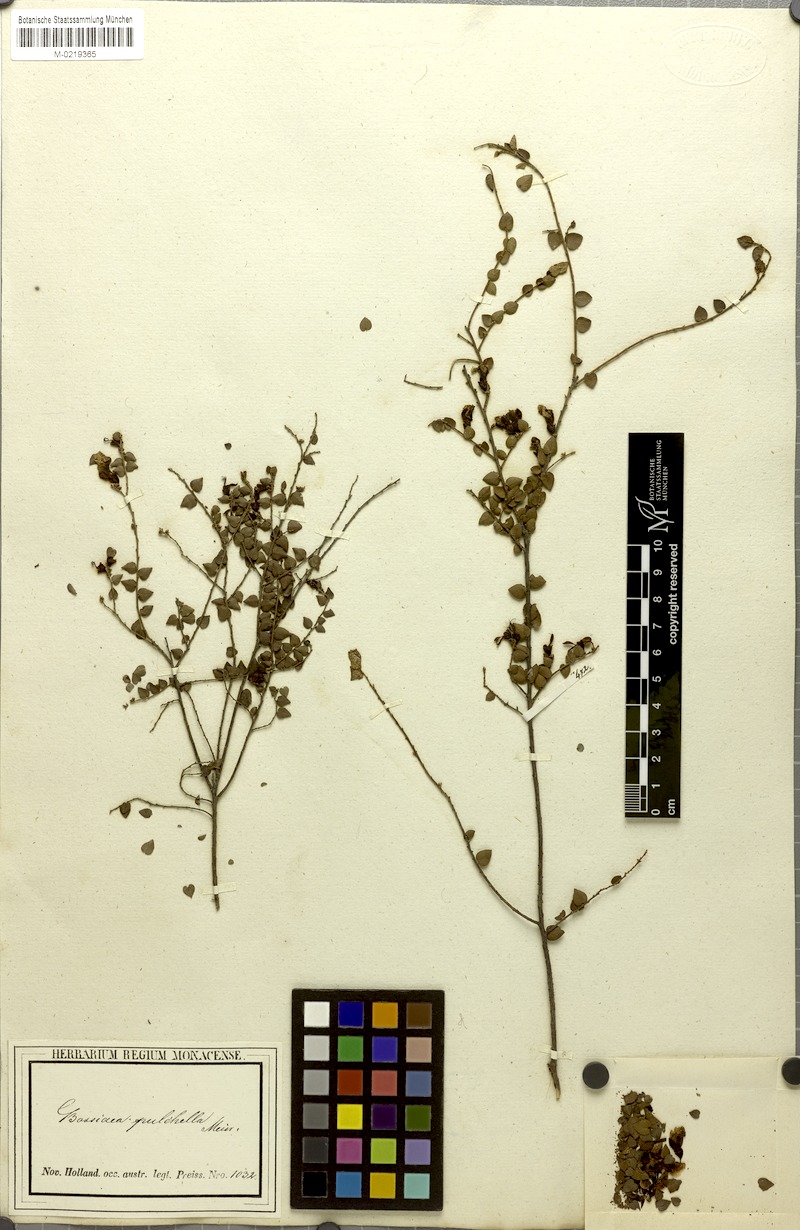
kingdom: Plantae
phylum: Tracheophyta
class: Magnoliopsida
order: Fabales
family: Fabaceae
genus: Bossiaea
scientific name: Bossiaea pulchella
